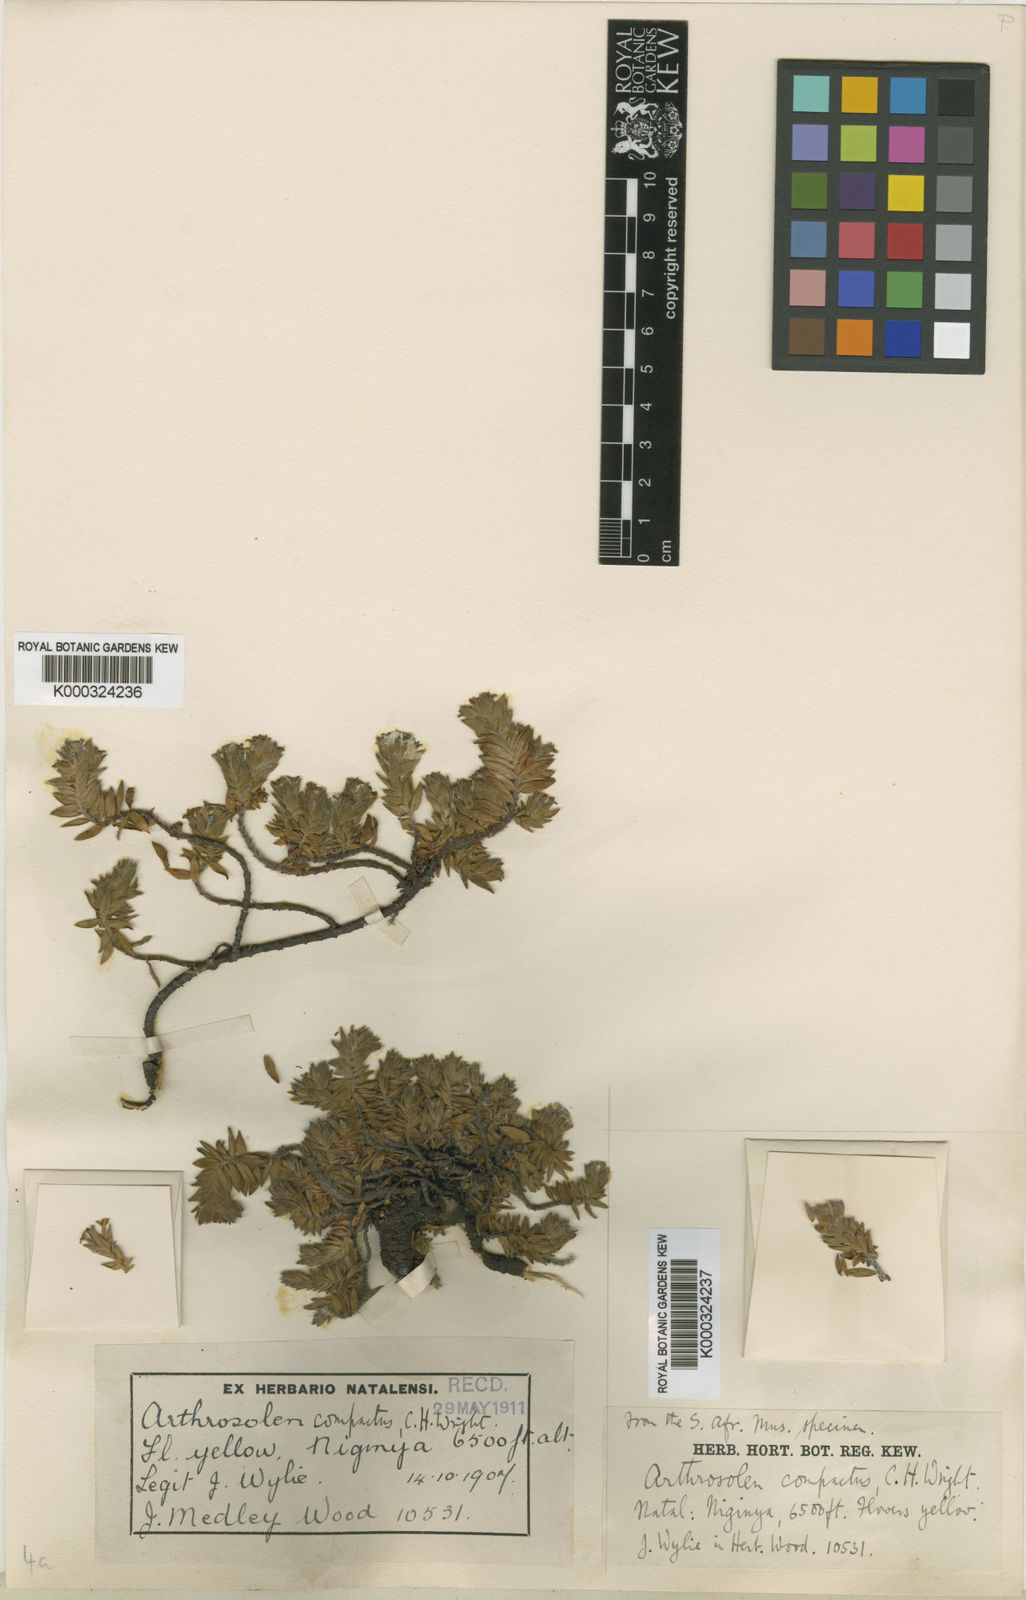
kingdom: Plantae
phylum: Tracheophyta
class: Magnoliopsida
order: Malvales
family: Thymelaeaceae
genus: Gnidia
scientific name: Gnidia compacta
